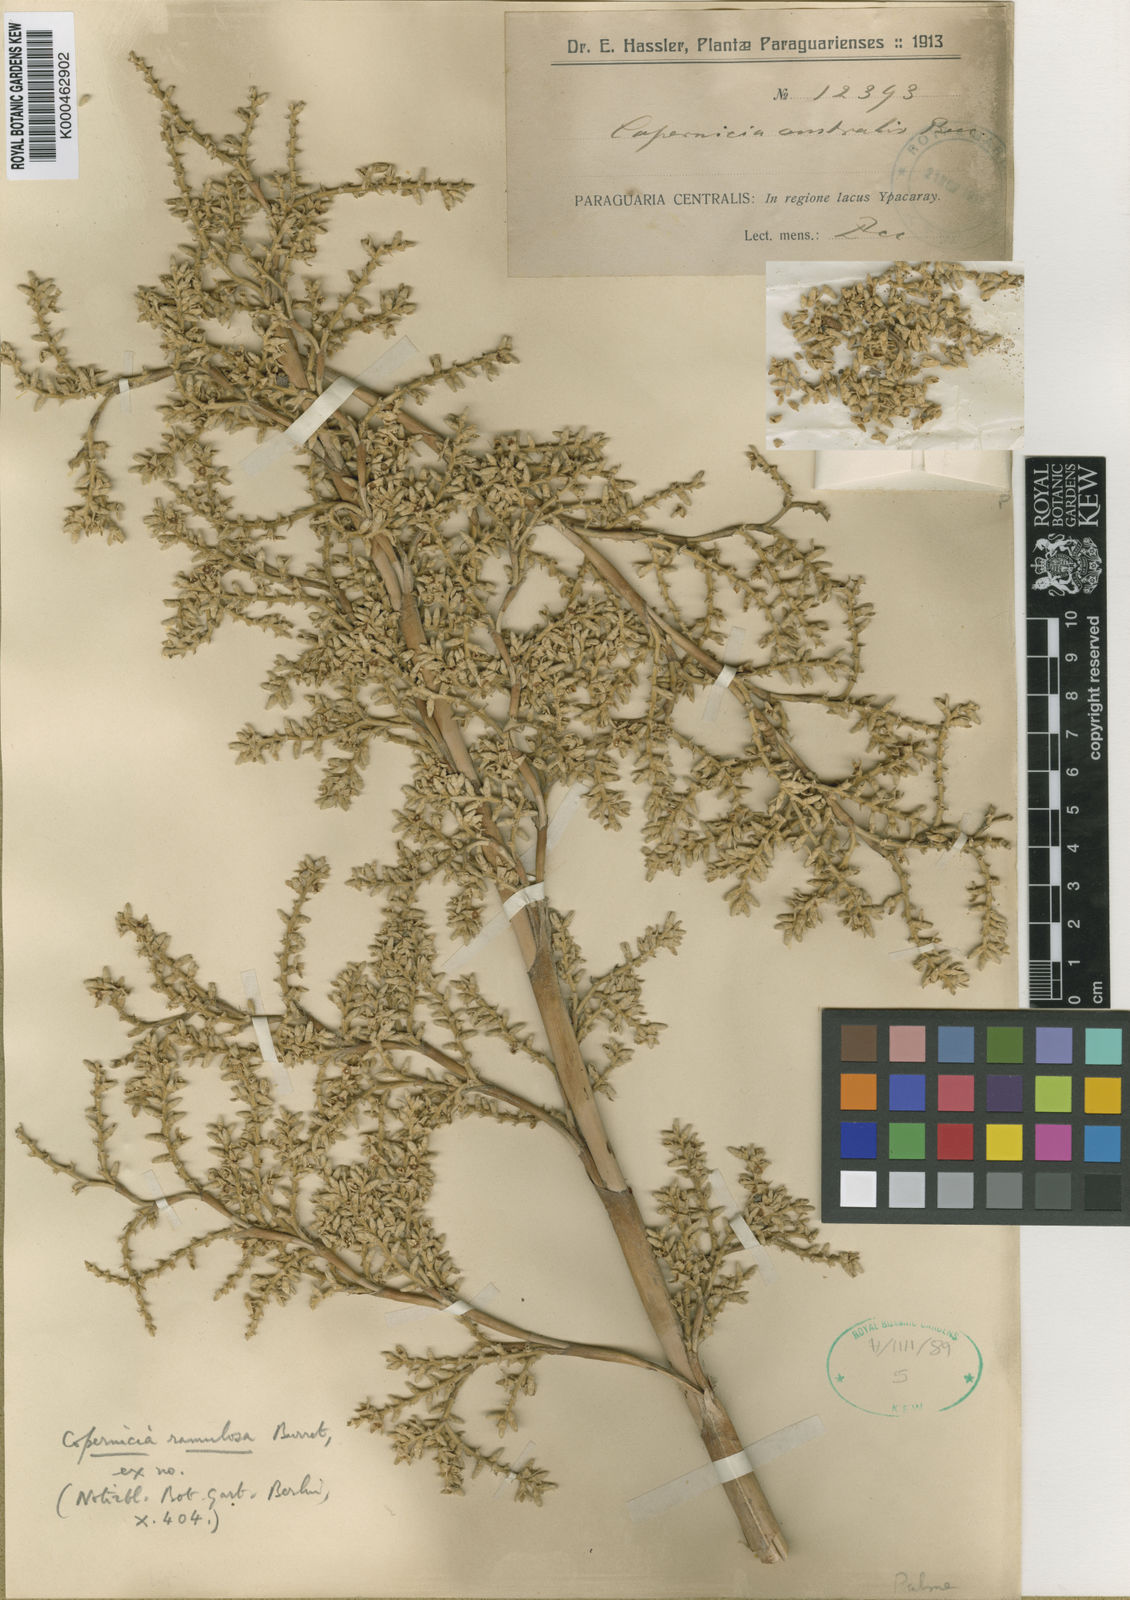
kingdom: Plantae
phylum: Tracheophyta
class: Liliopsida
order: Arecales
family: Arecaceae
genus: Copernicia
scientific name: Copernicia alba
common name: Caranday palm
